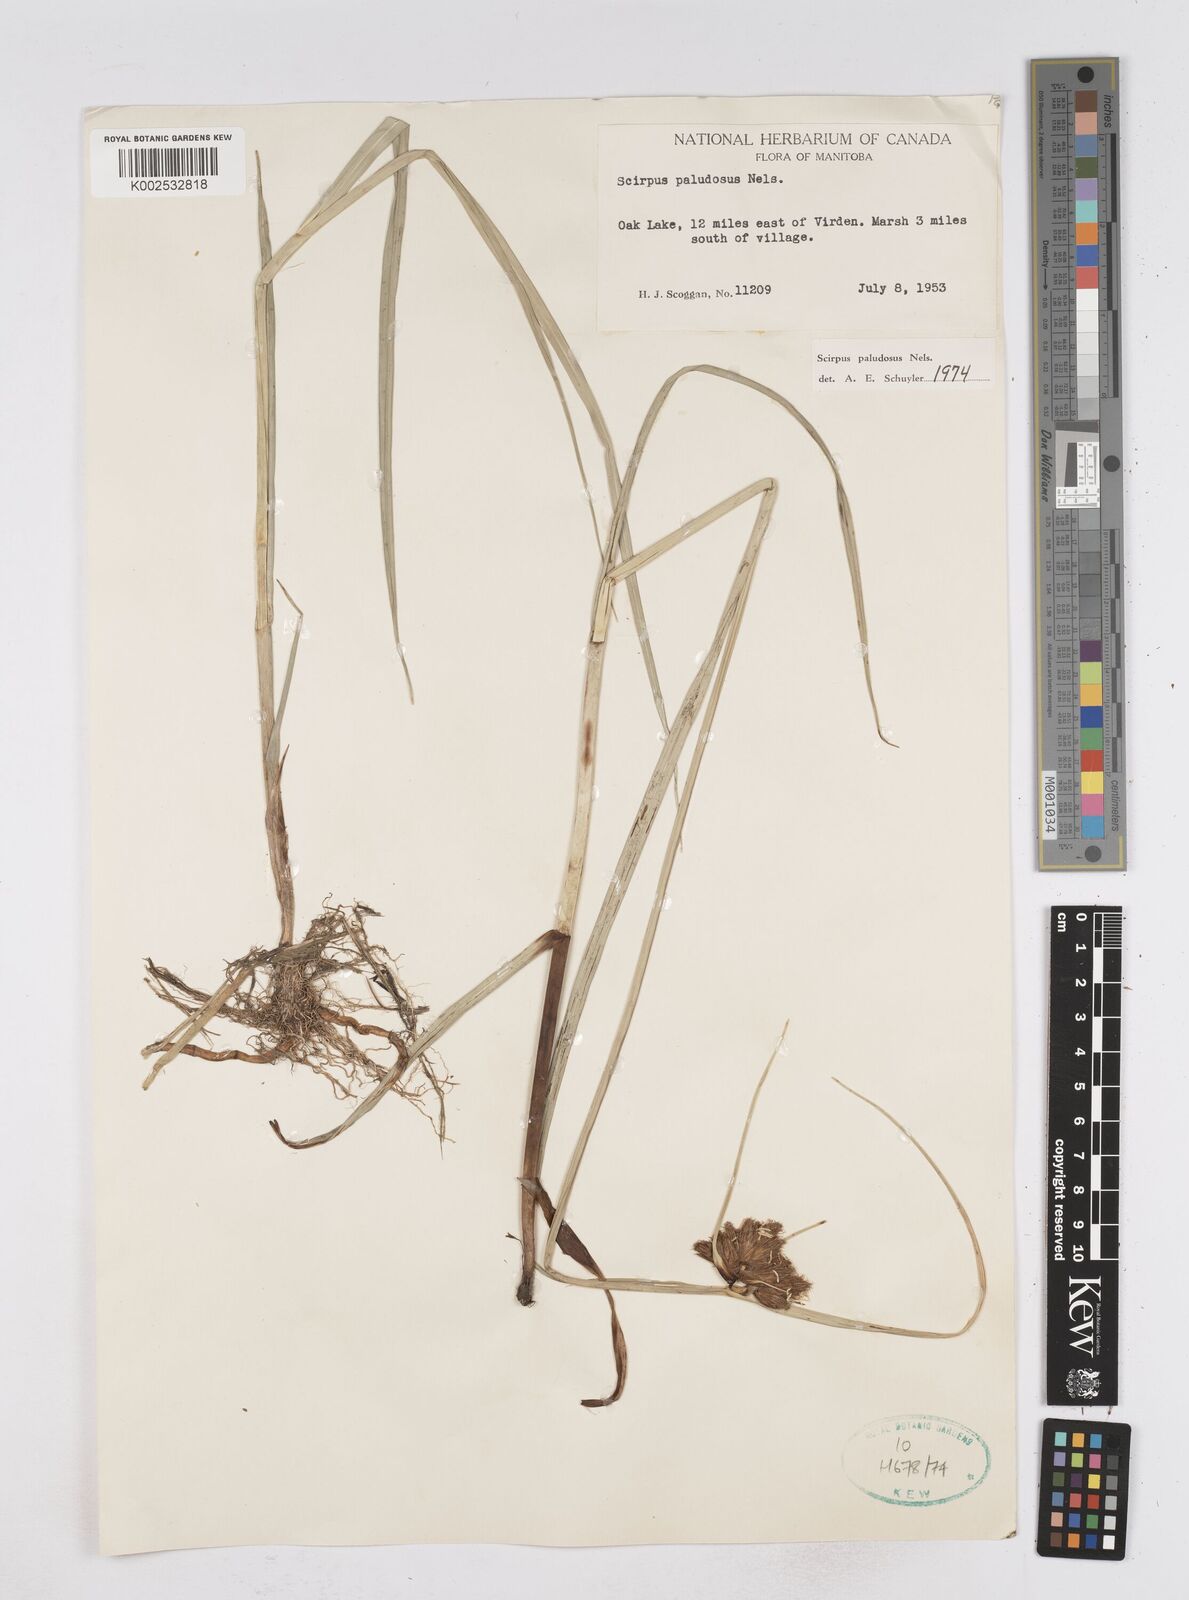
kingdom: Plantae
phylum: Tracheophyta
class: Liliopsida
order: Poales
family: Cyperaceae
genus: Bolboschoenus
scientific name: Bolboschoenus maritimus
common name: Sea club-rush
